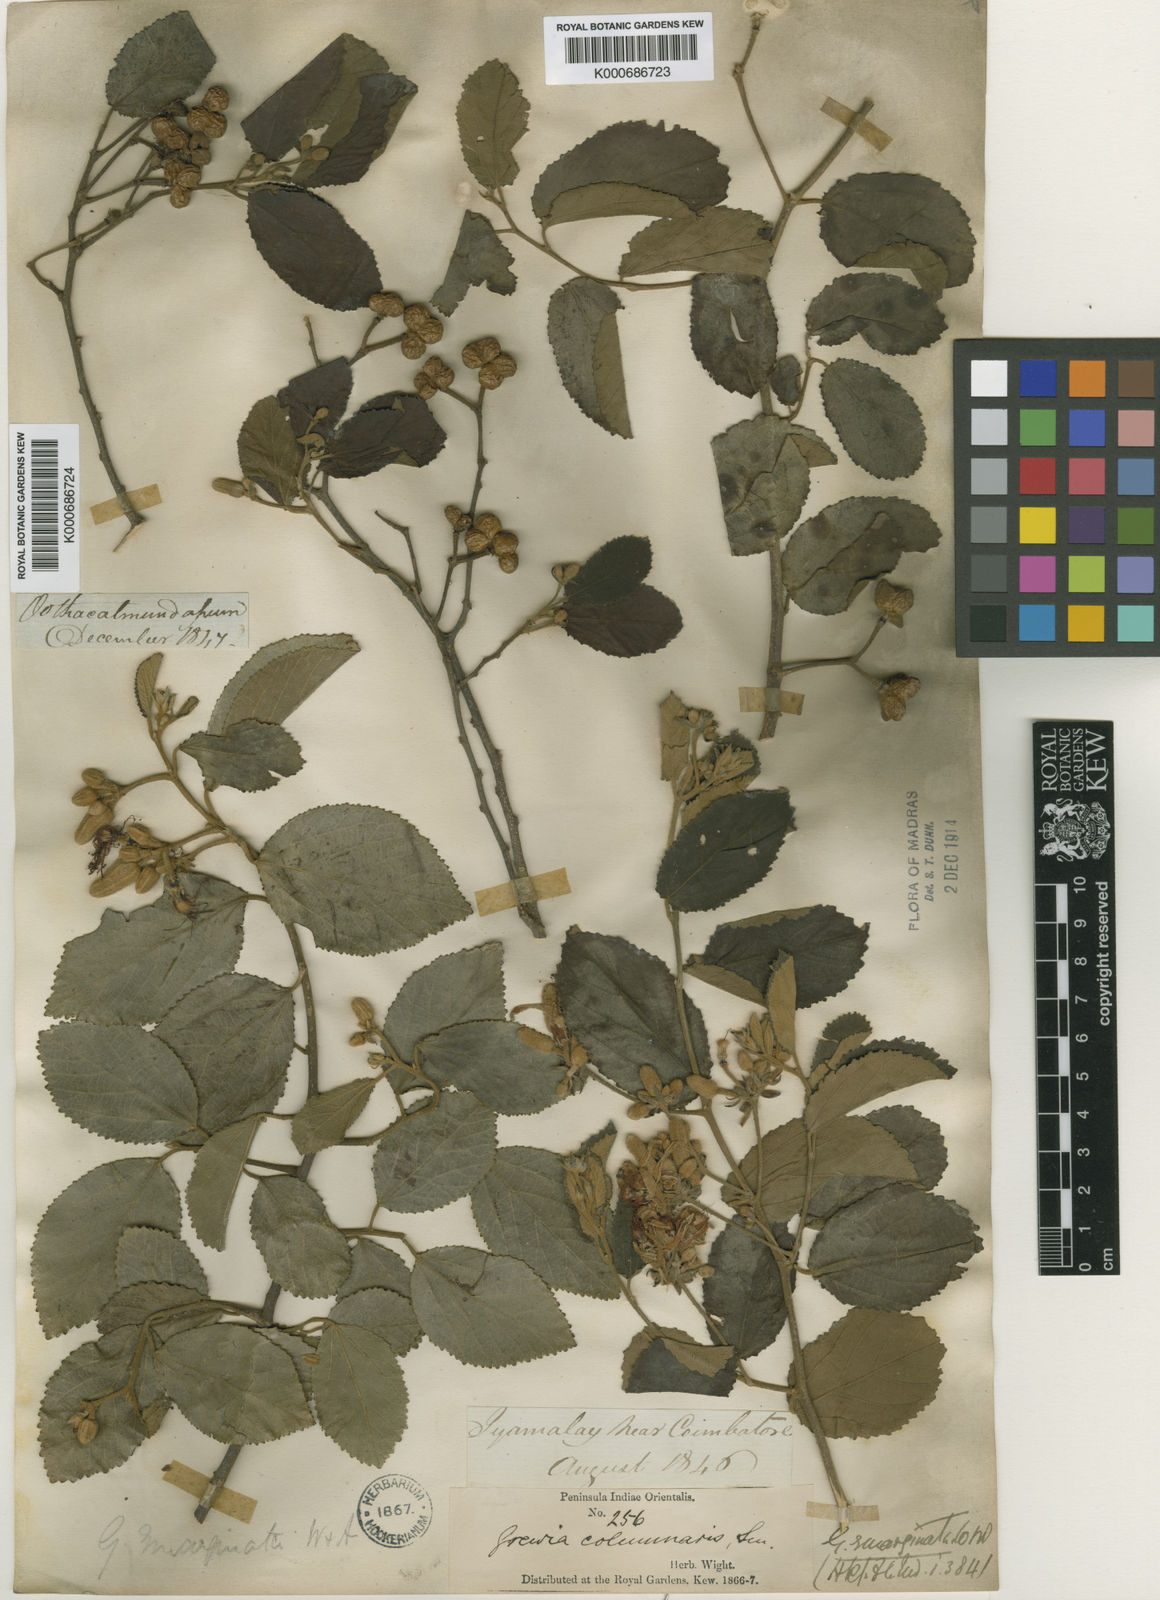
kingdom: Plantae
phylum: Tracheophyta
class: Magnoliopsida
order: Malvales
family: Malvaceae
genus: Grewia
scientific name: Grewia oppositifolia
